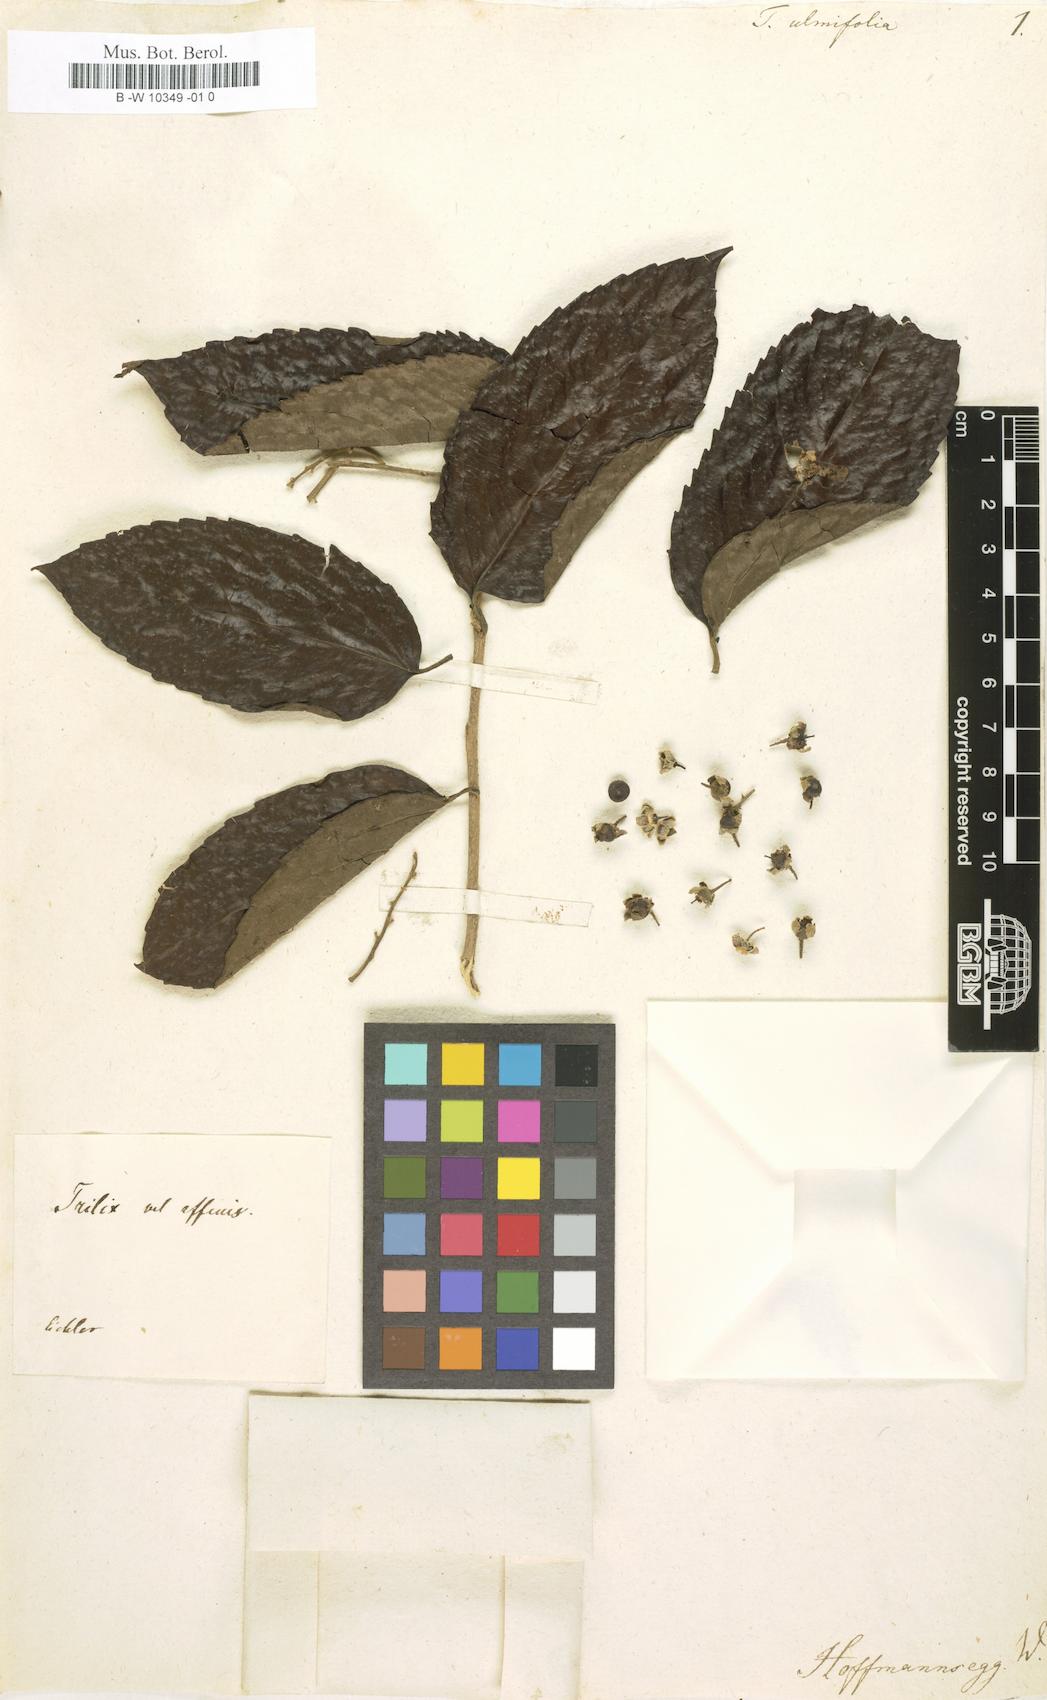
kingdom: Plantae
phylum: Tracheophyta
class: Magnoliopsida
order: Dilleniales
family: Dilleniaceae
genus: Tetracera
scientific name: Tetracera ulmifolia
